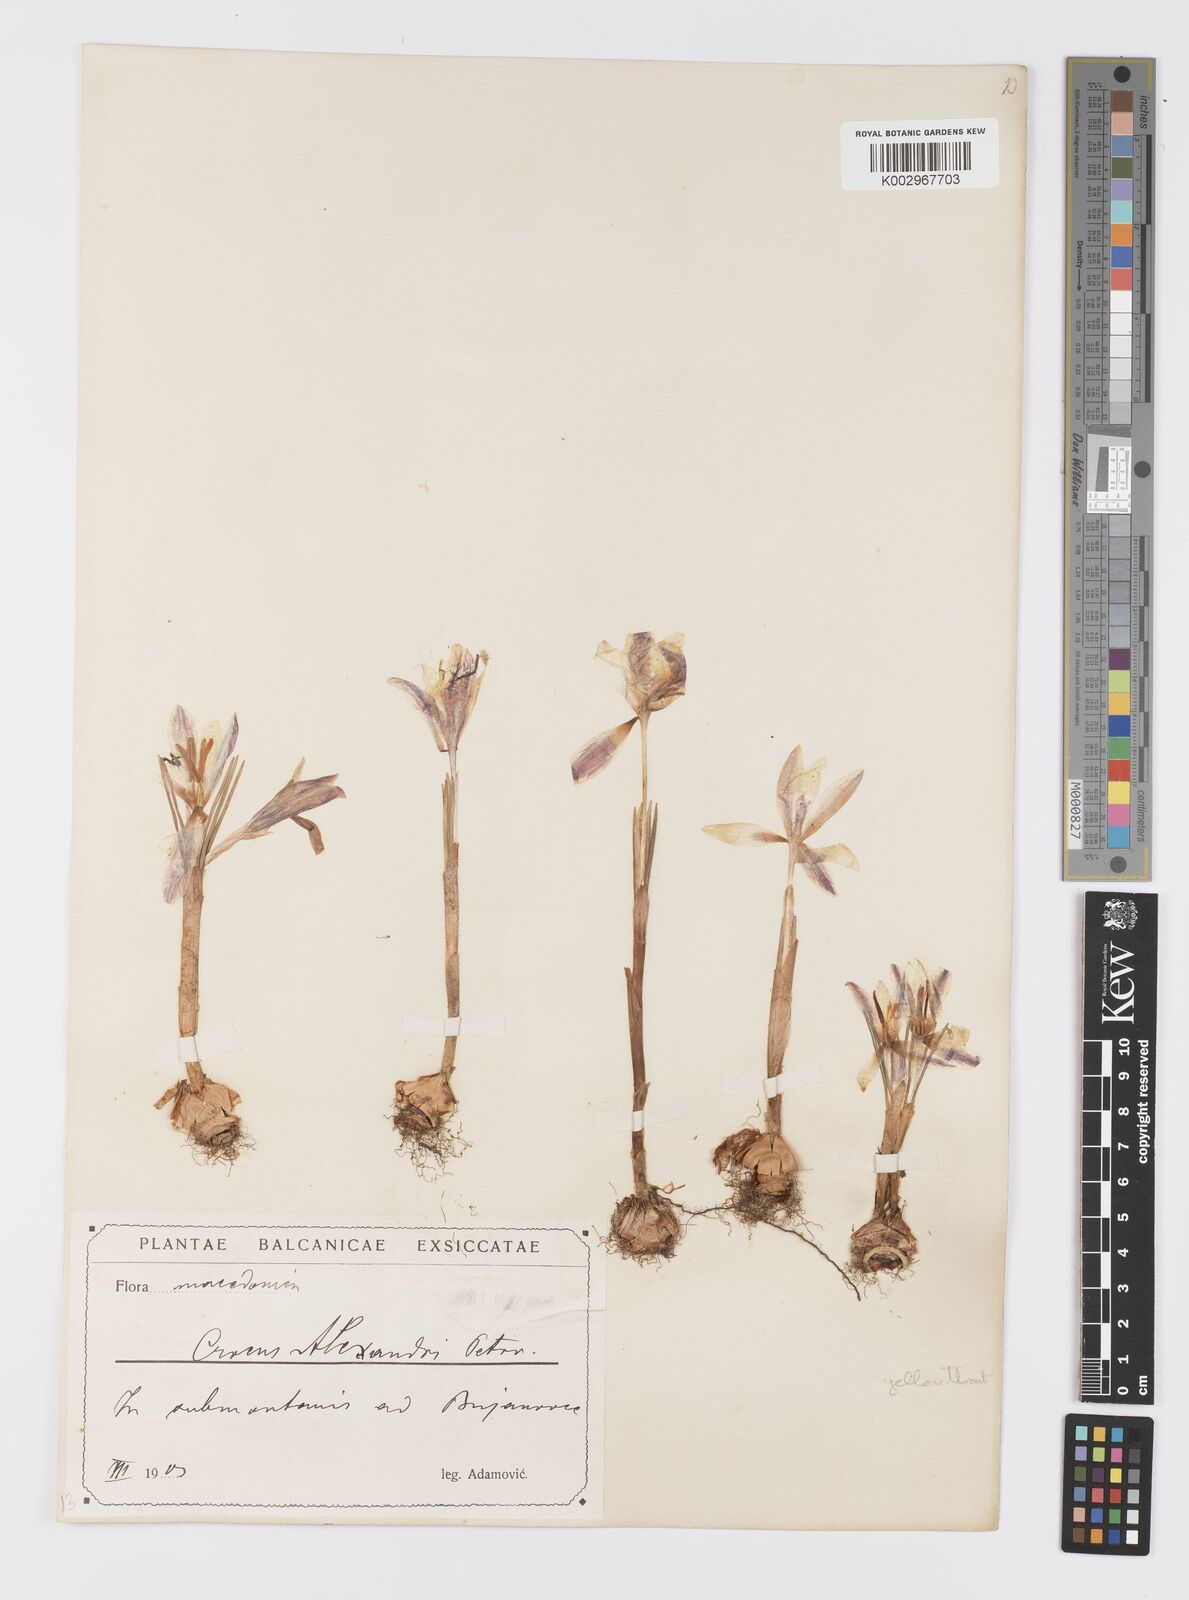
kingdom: Plantae
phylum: Tracheophyta
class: Liliopsida
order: Asparagales
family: Iridaceae
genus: Crocus
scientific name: Crocus adami
